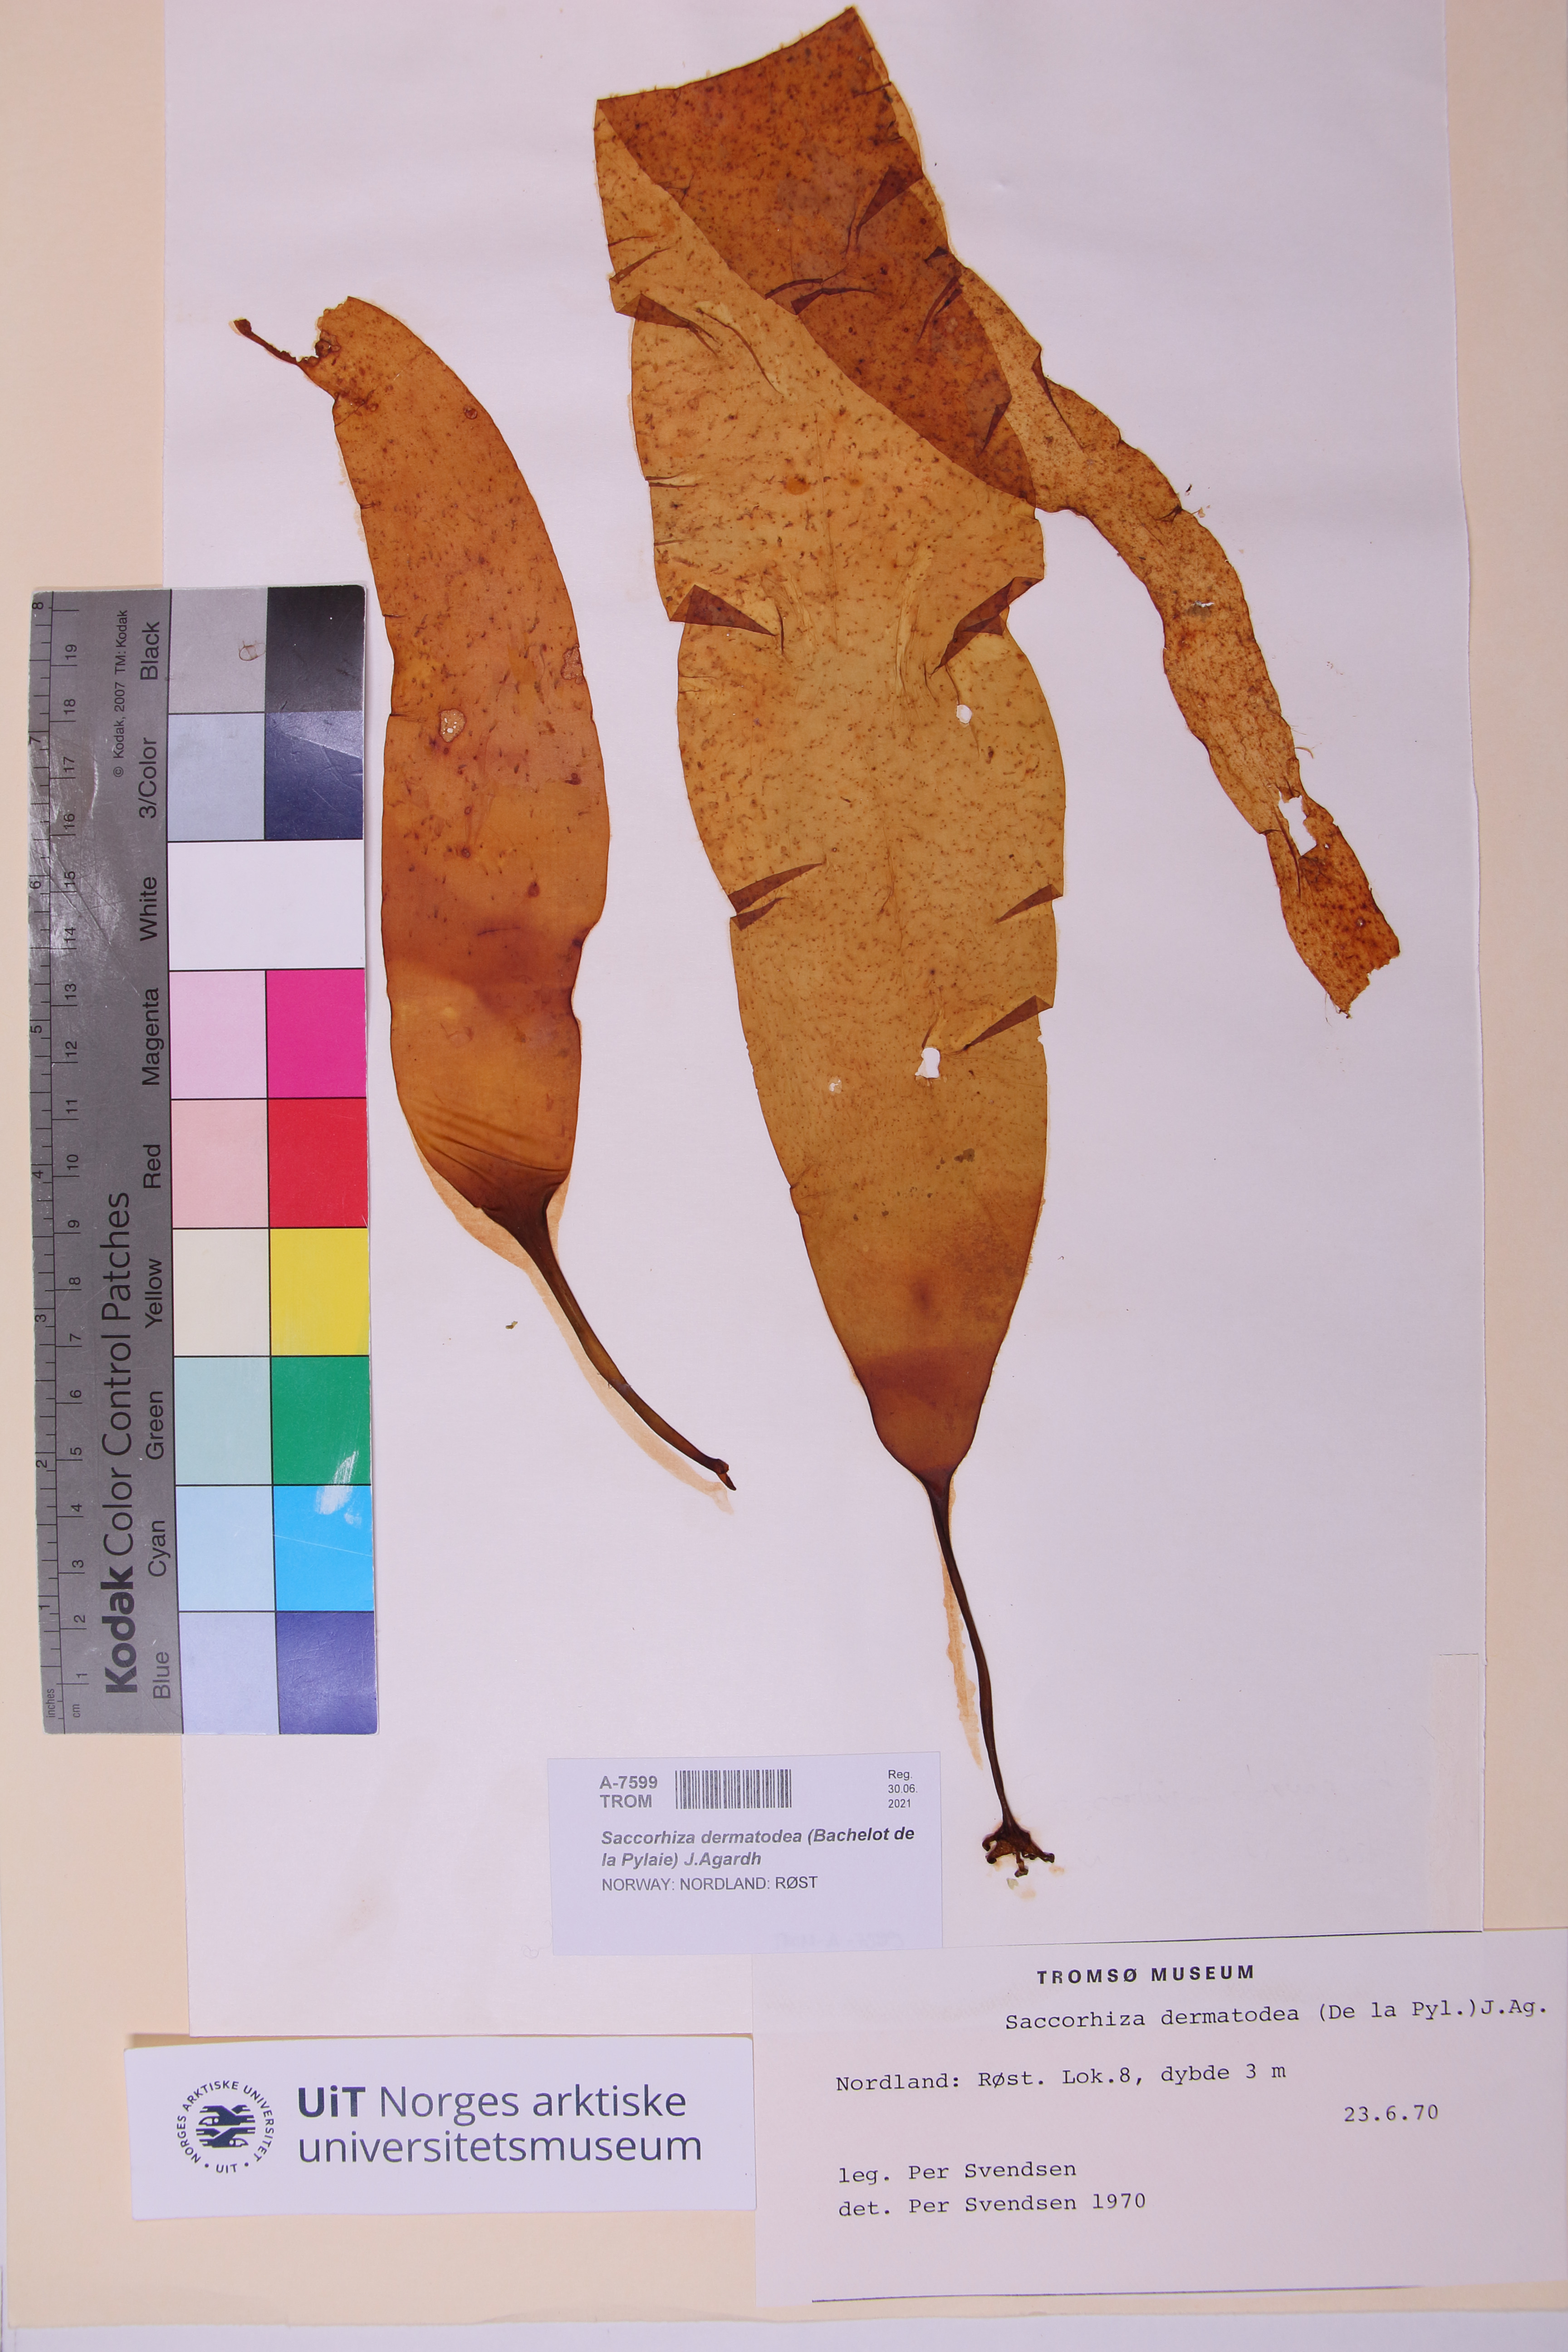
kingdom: Chromista
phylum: Ochrophyta
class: Phaeophyceae
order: Tilopteridales
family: Phyllariaceae
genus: Saccorhiza
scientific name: Saccorhiza dermatodea
